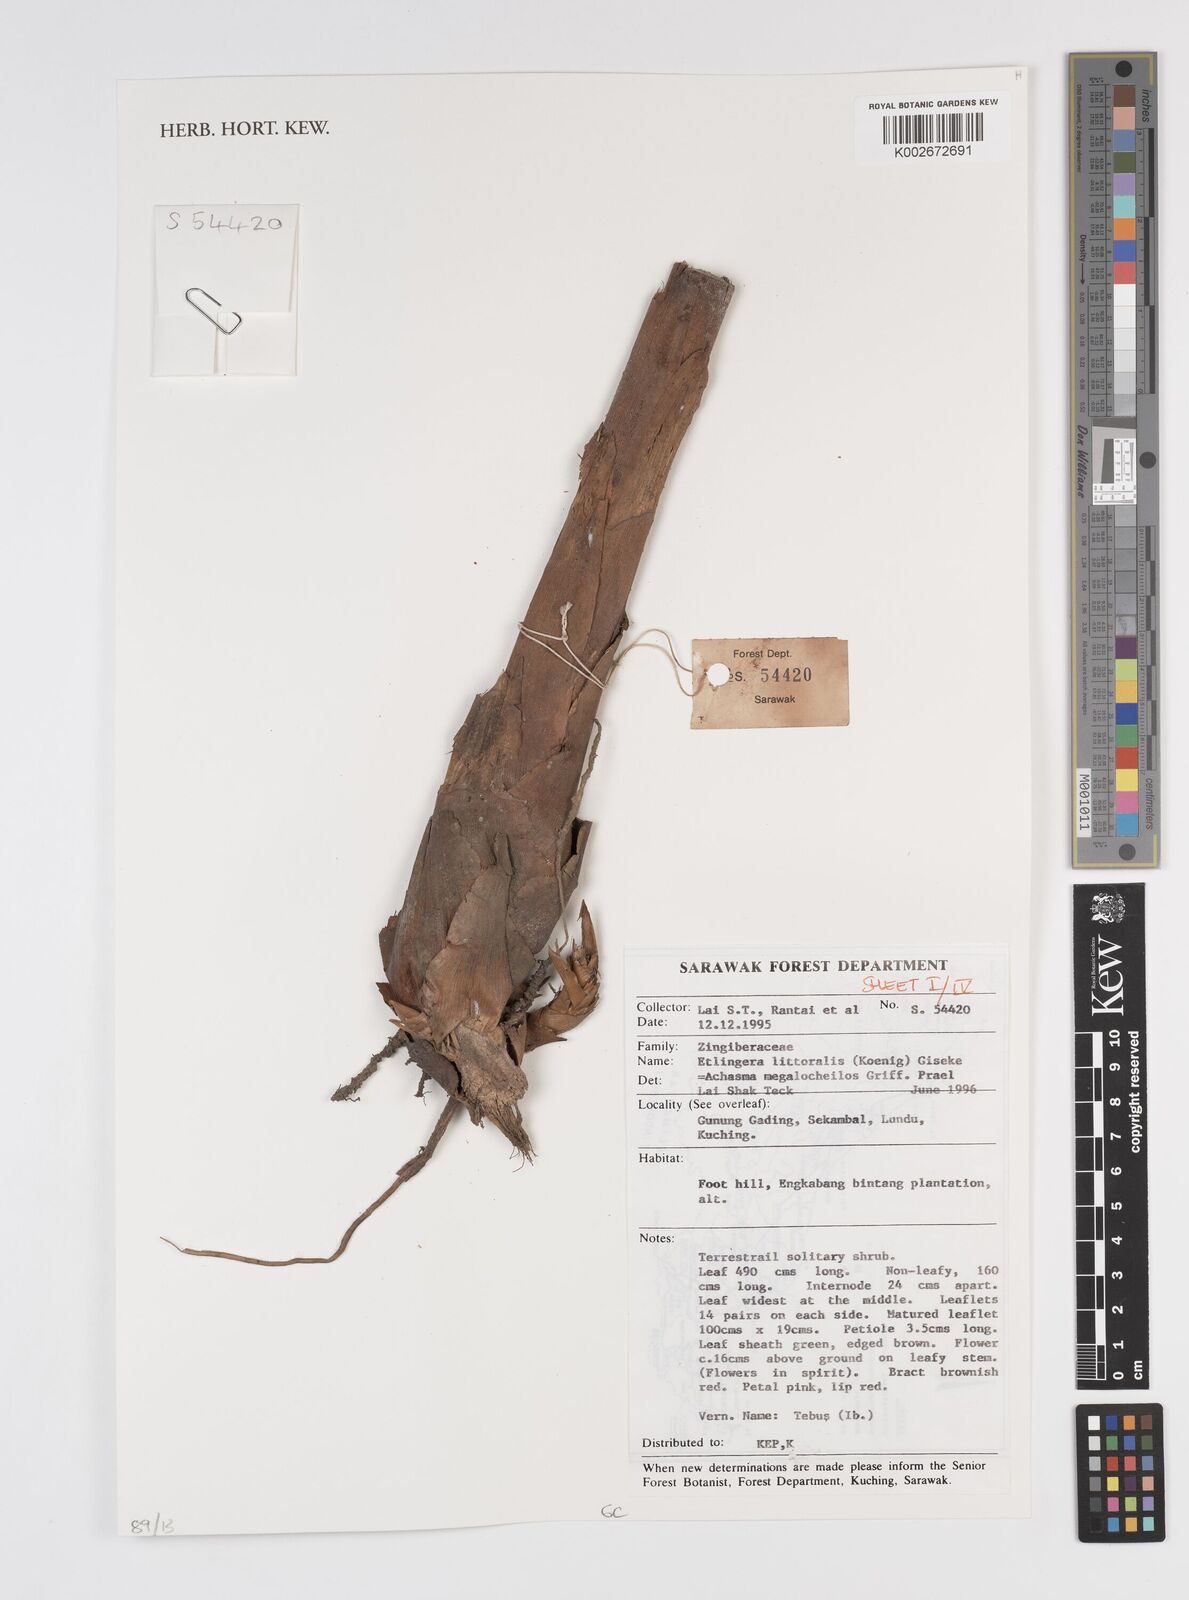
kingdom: Plantae
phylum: Tracheophyta
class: Liliopsida
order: Zingiberales
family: Zingiberaceae
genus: Etlingera
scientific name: Etlingera littoralis
